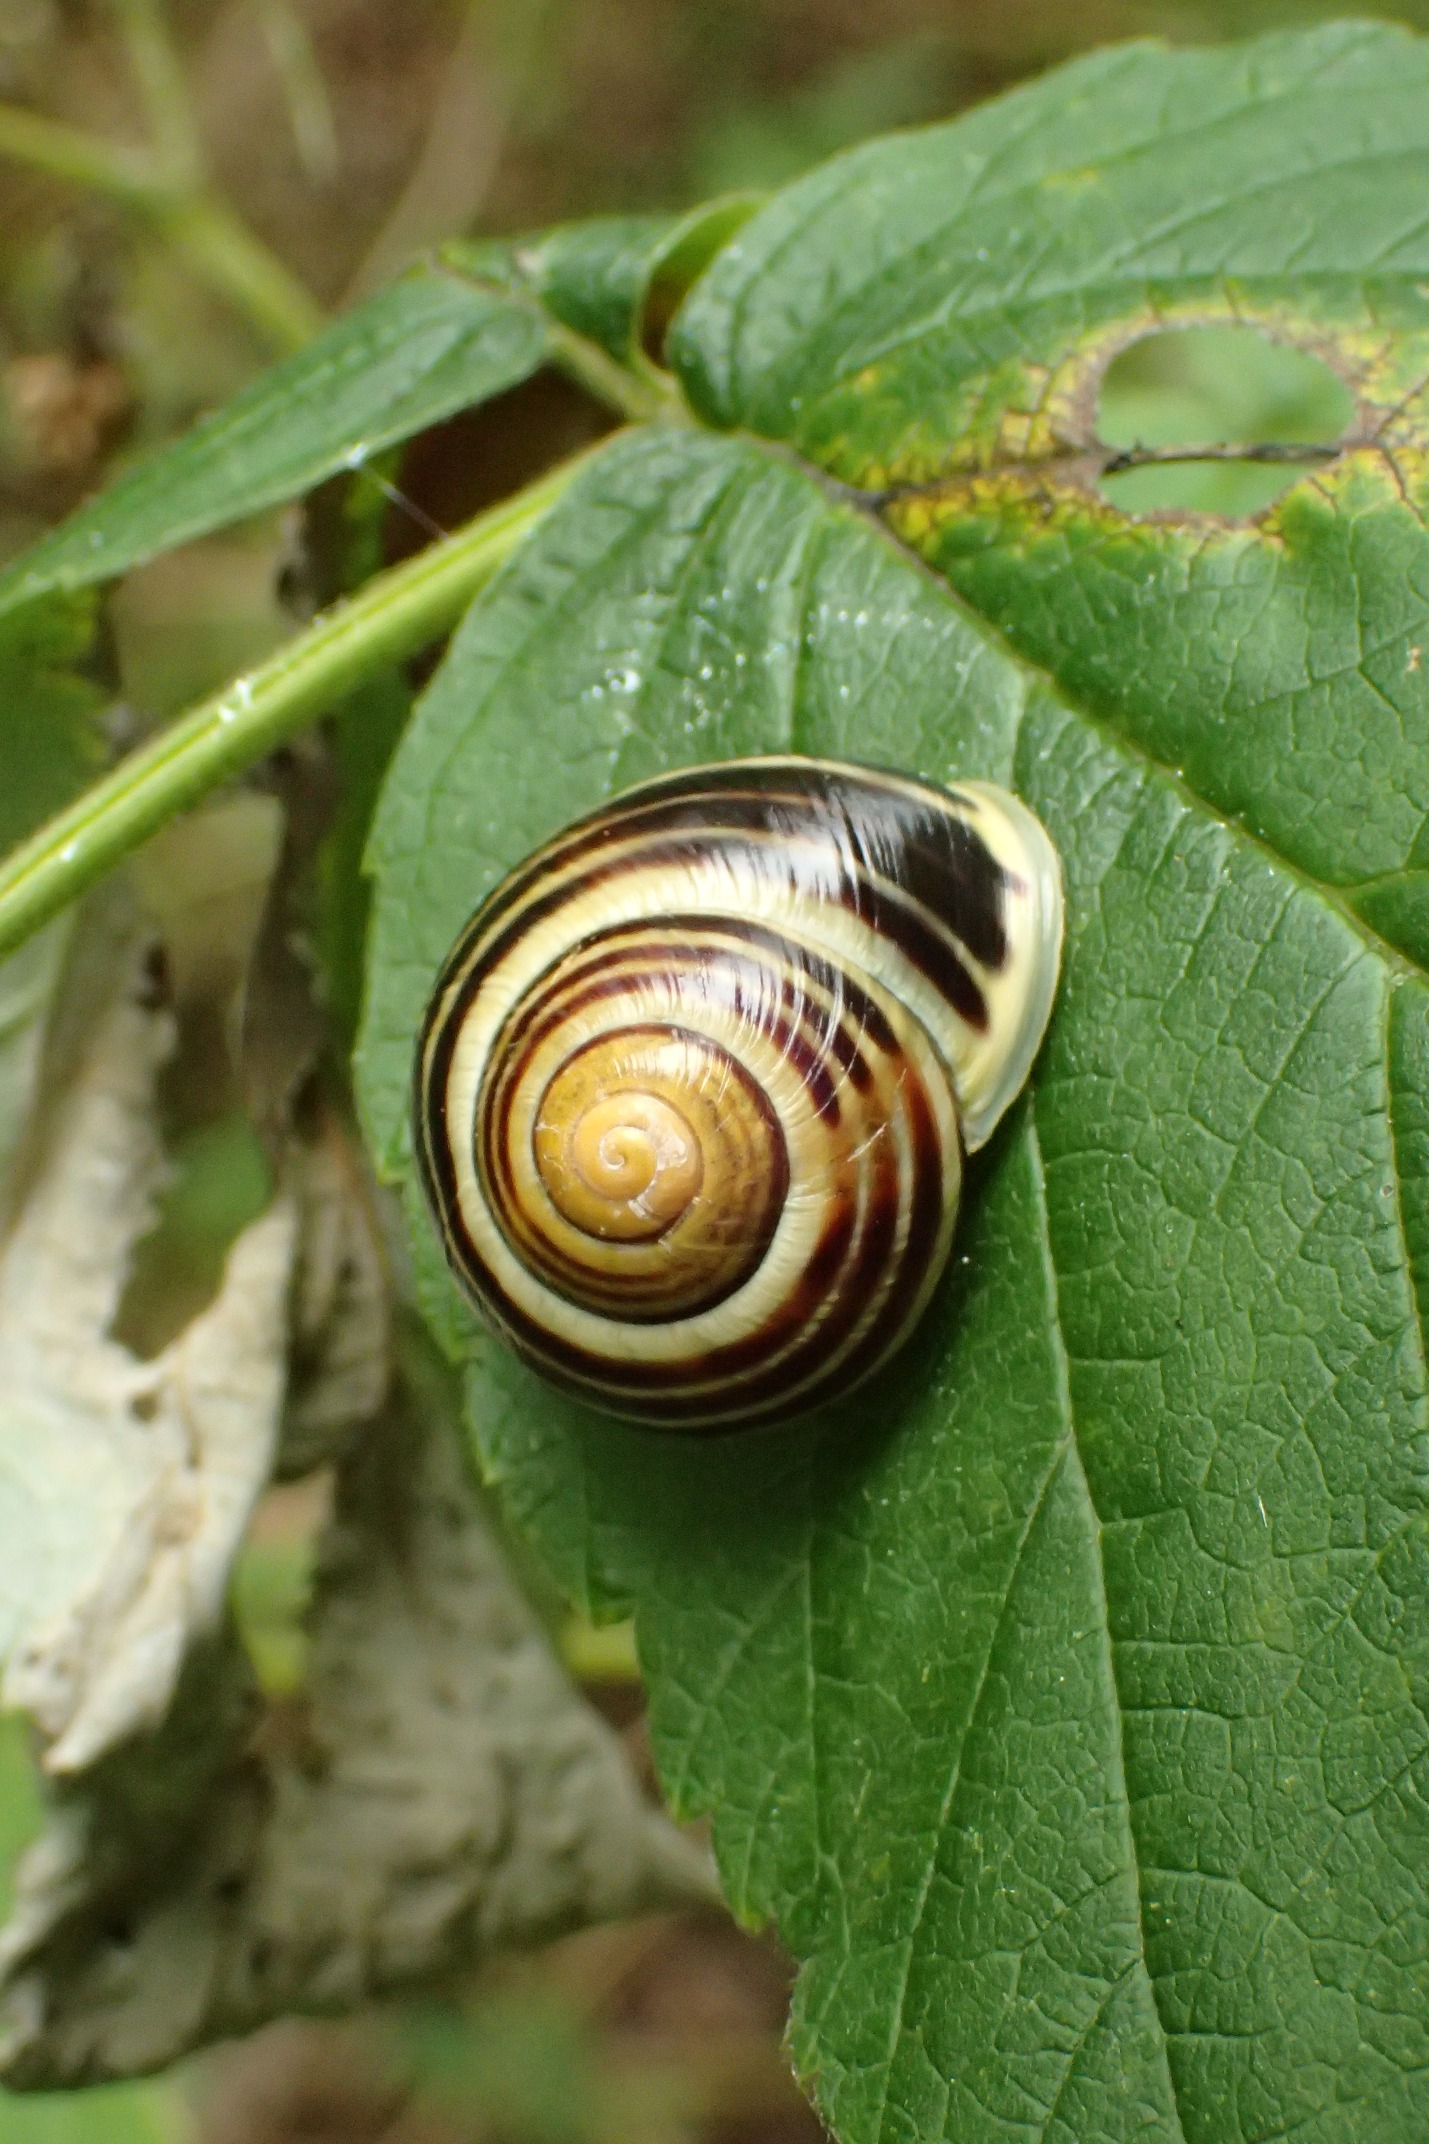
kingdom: Animalia
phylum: Mollusca
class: Gastropoda
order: Stylommatophora
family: Helicidae
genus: Cepaea
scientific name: Cepaea hortensis
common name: Havesnegl
